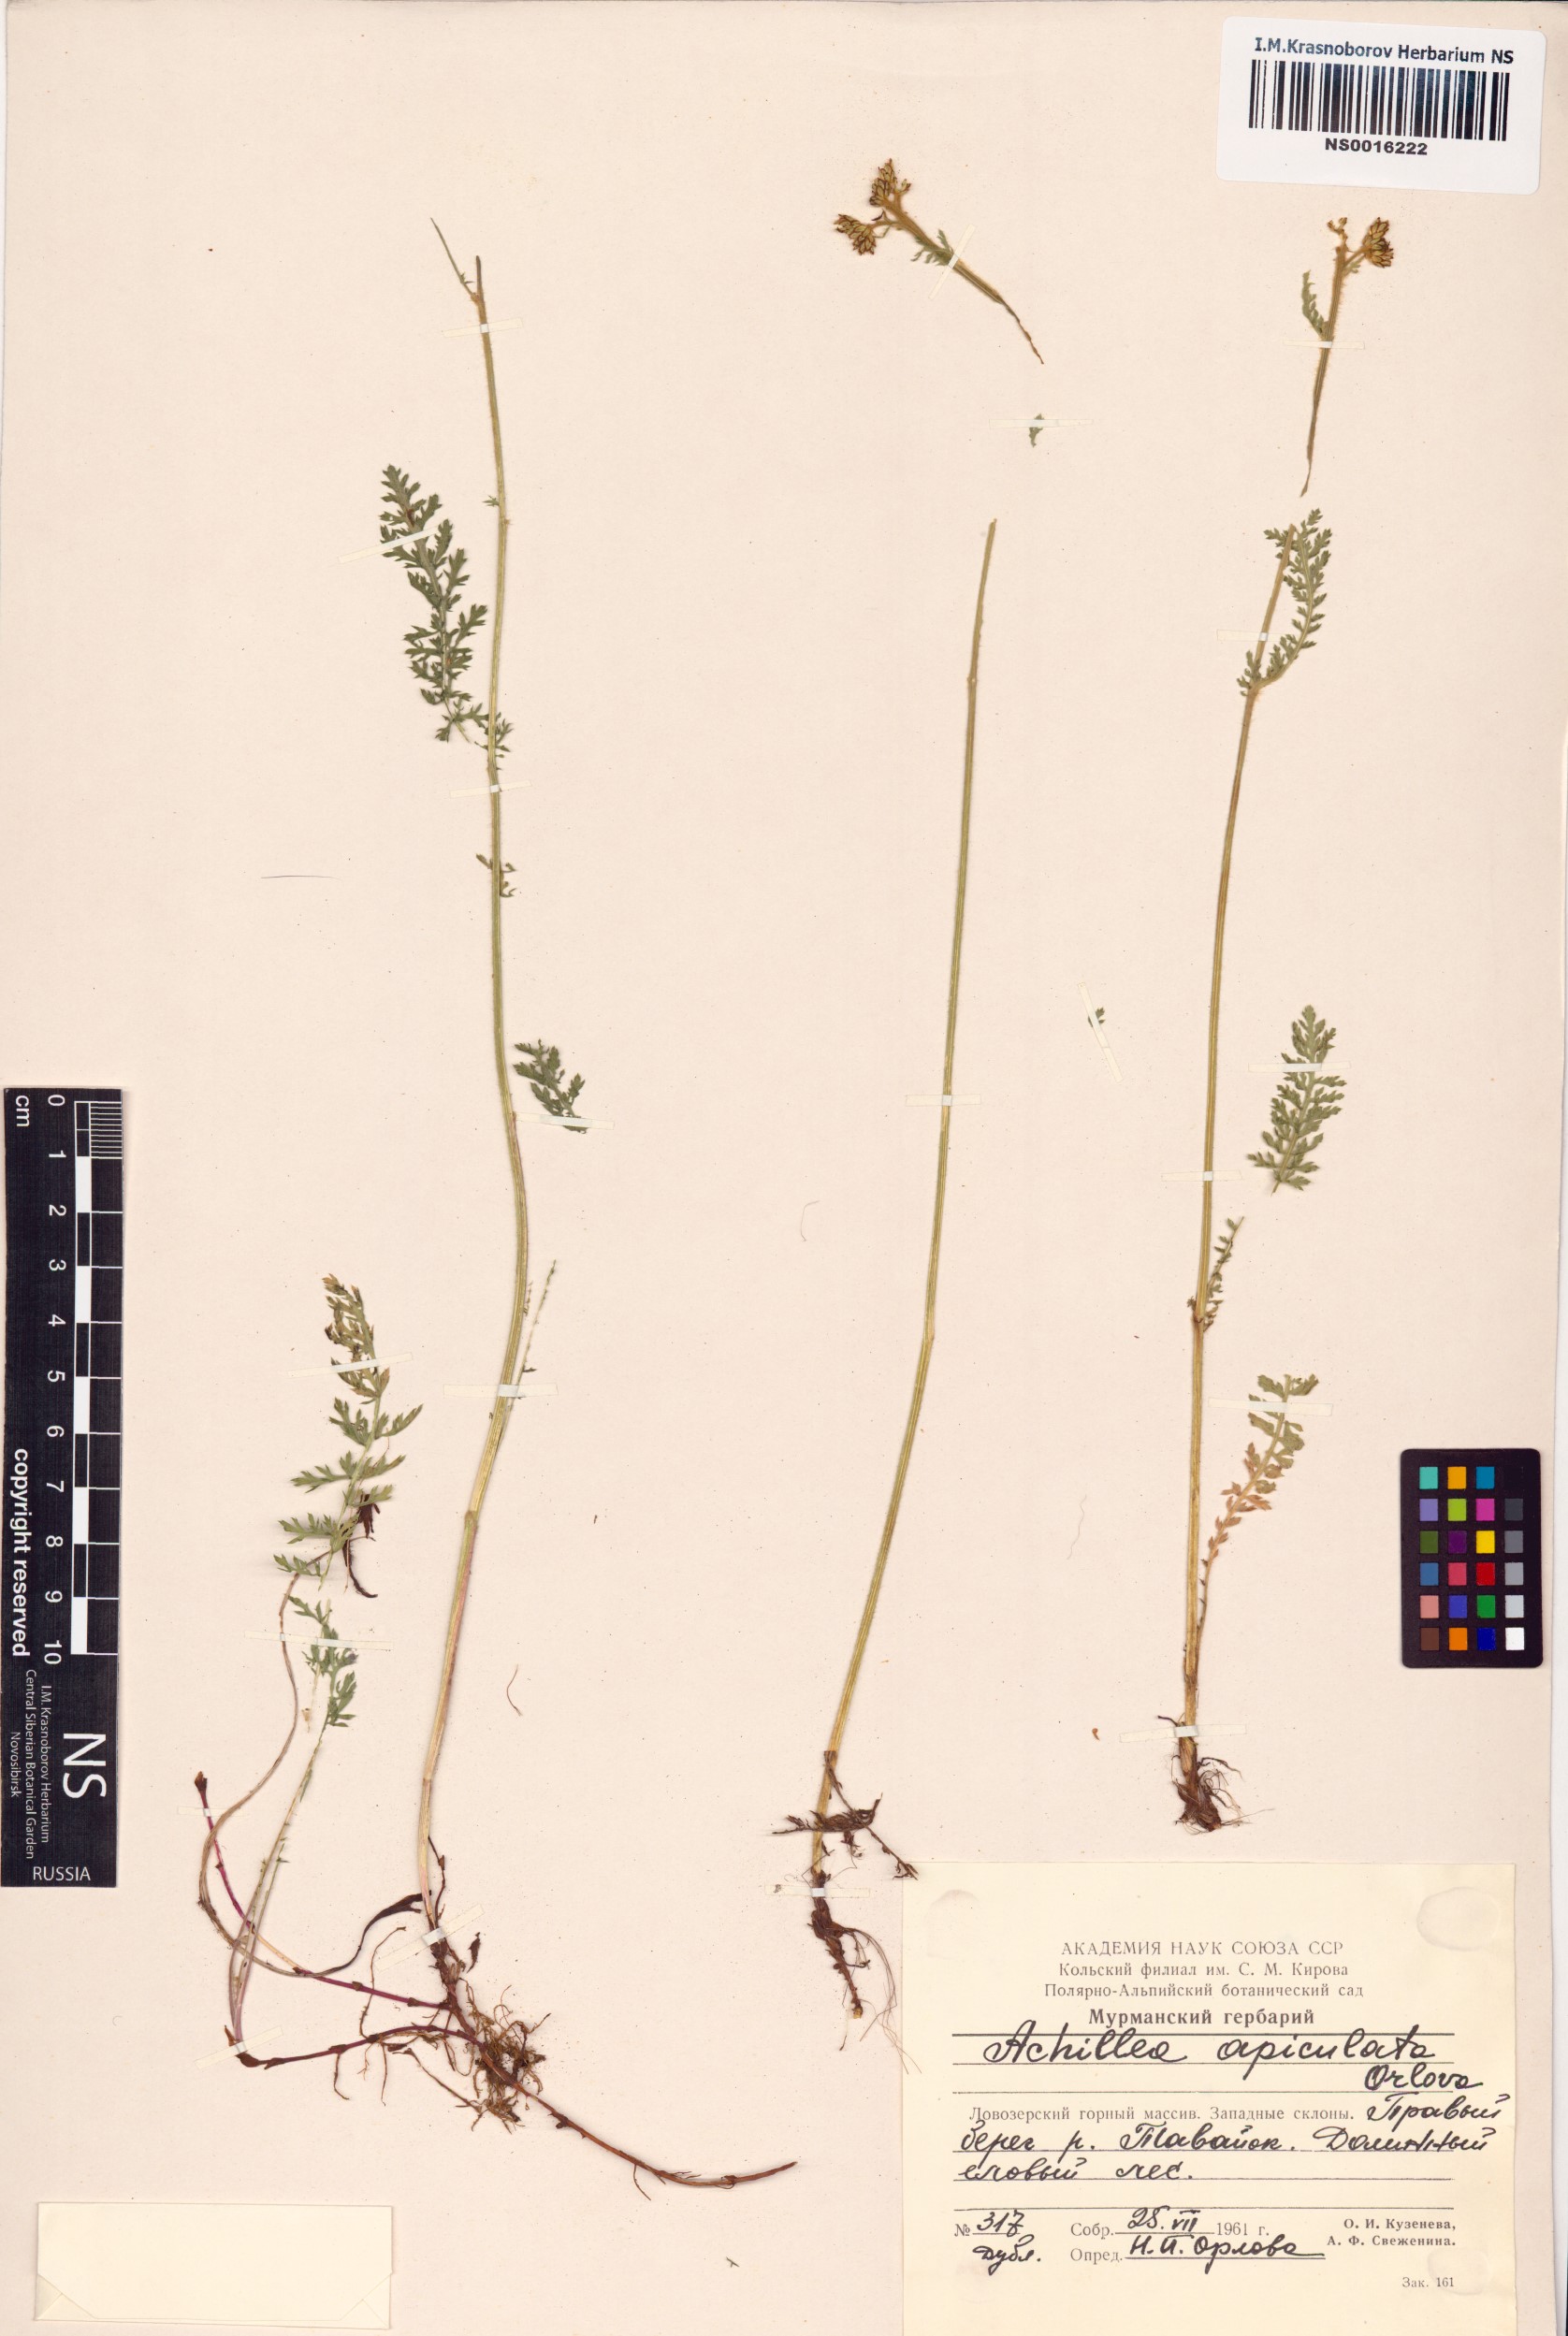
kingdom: Plantae
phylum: Tracheophyta
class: Magnoliopsida
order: Asterales
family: Asteraceae
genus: Achillea
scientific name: Achillea apiculata
